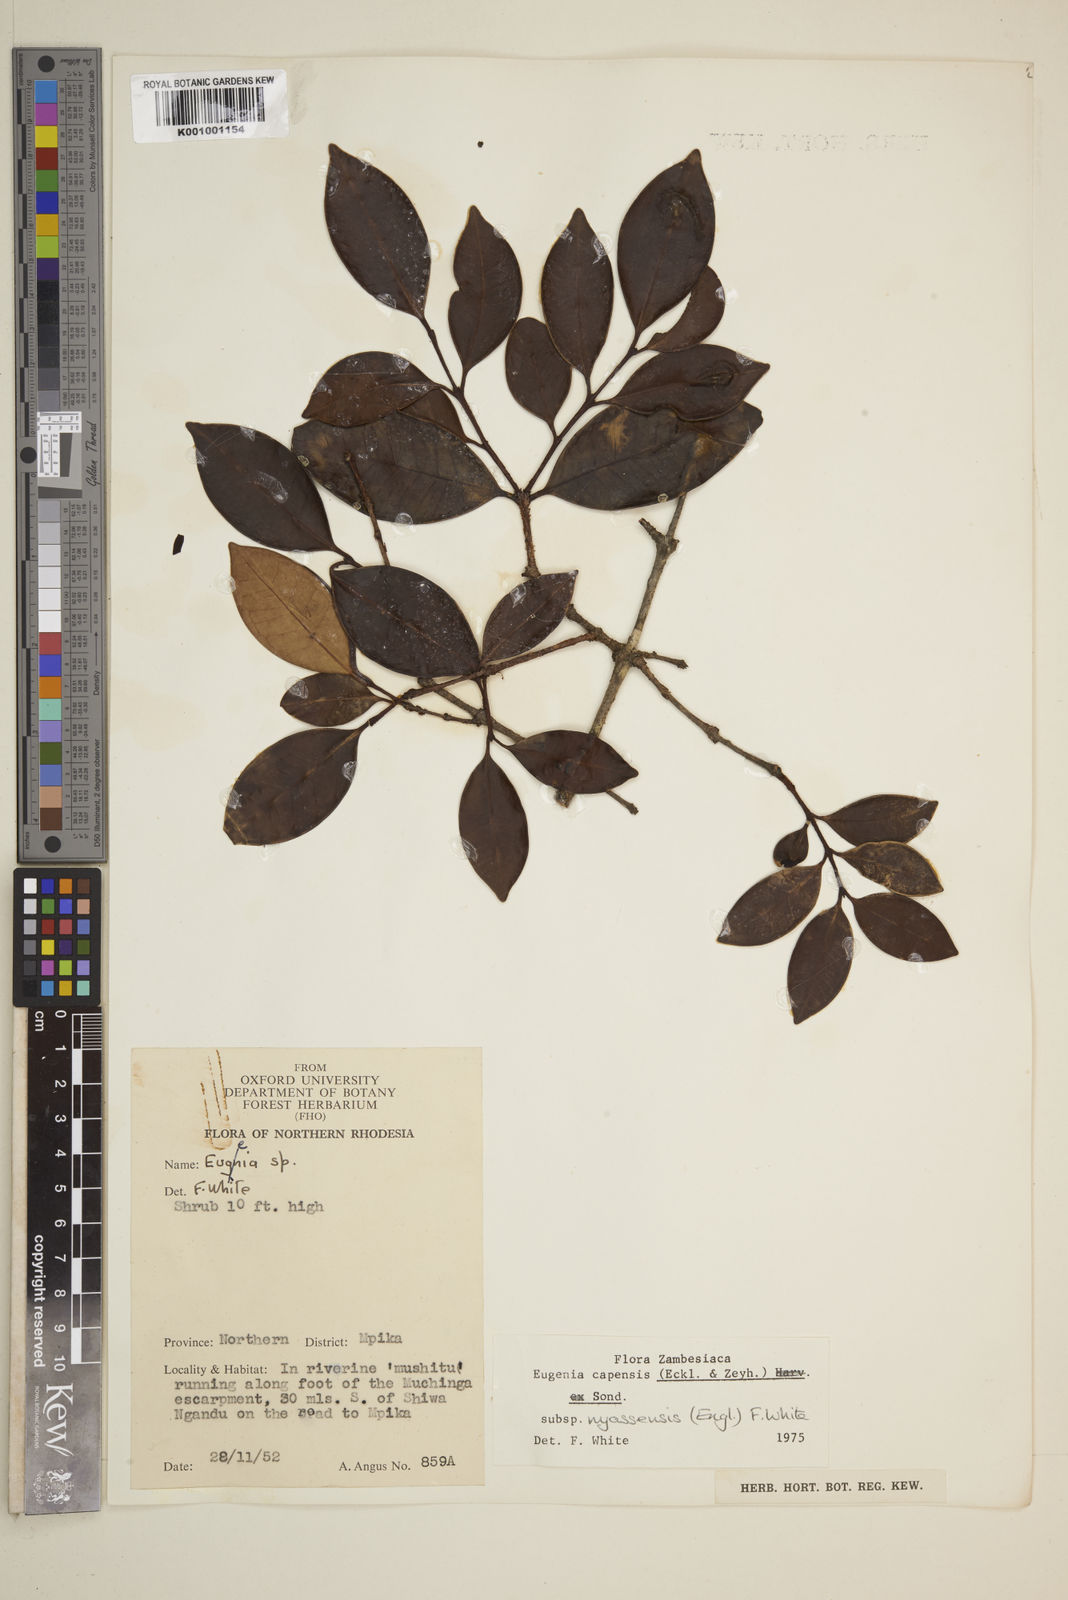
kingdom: Plantae
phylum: Tracheophyta
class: Magnoliopsida
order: Myrtales
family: Myrtaceae
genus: Eugenia
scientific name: Eugenia capensis
